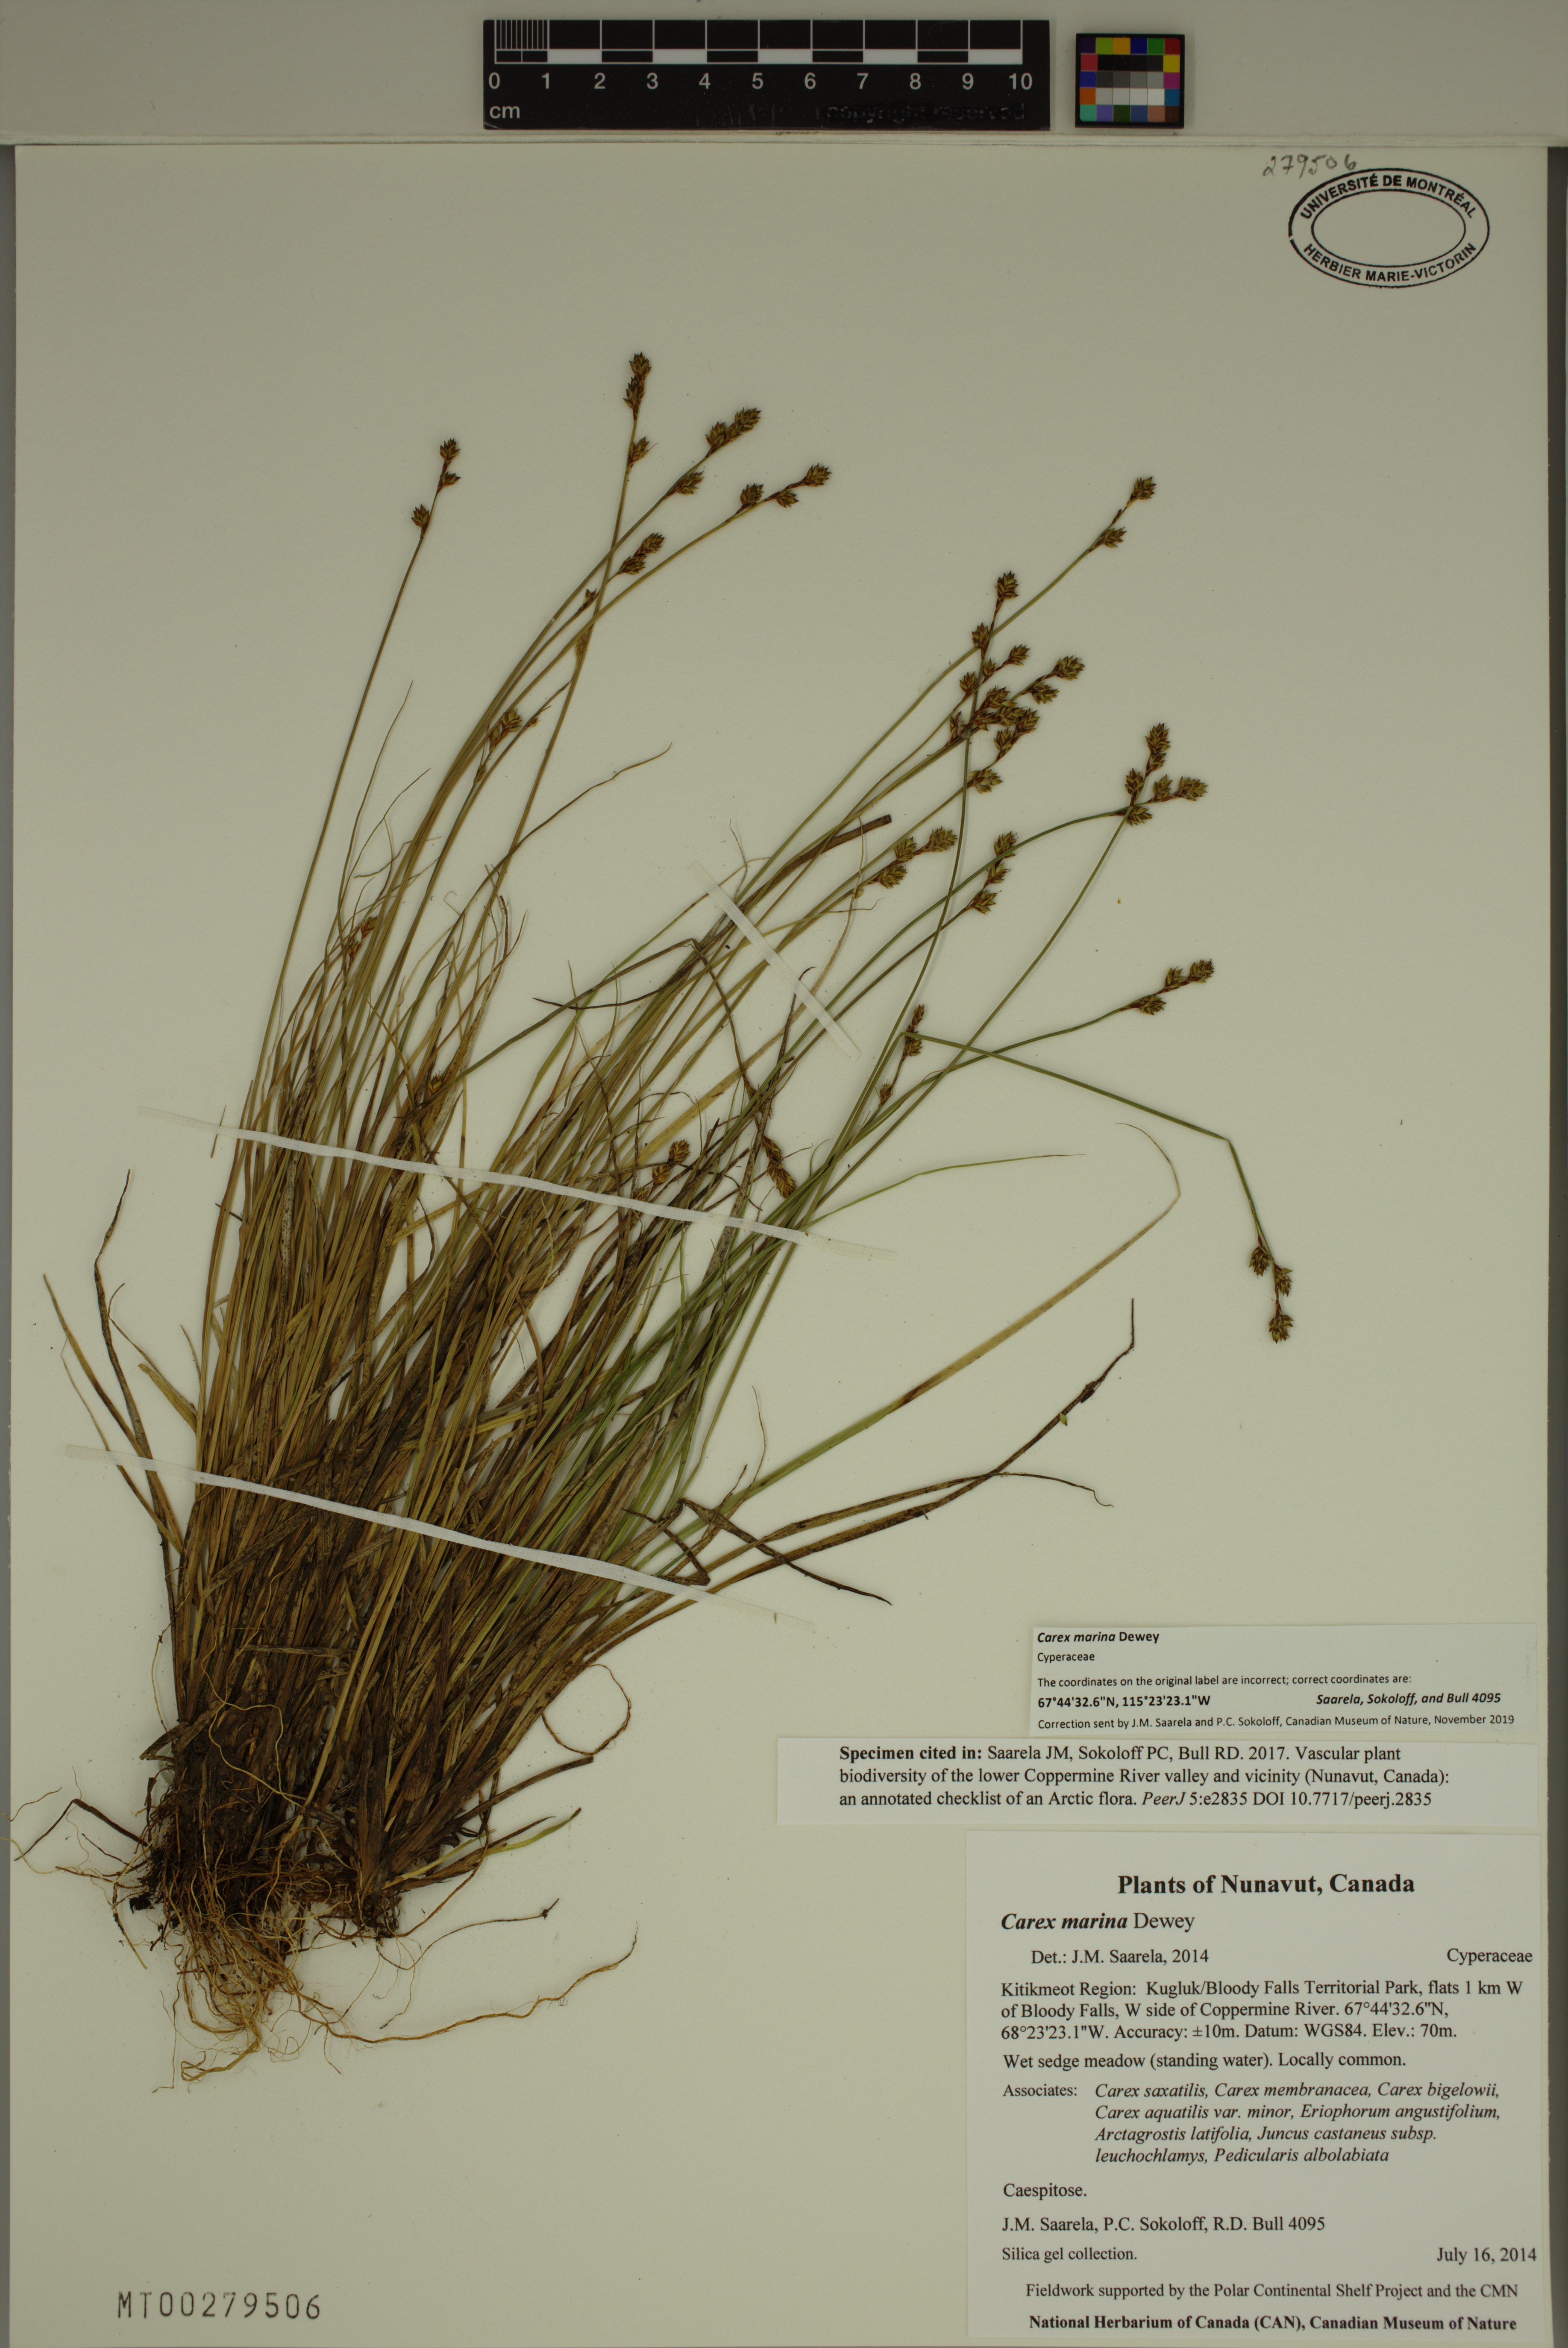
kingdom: Plantae
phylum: Tracheophyta
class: Liliopsida
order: Poales
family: Cyperaceae
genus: Carex
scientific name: Carex marina
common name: Seashore sedge
